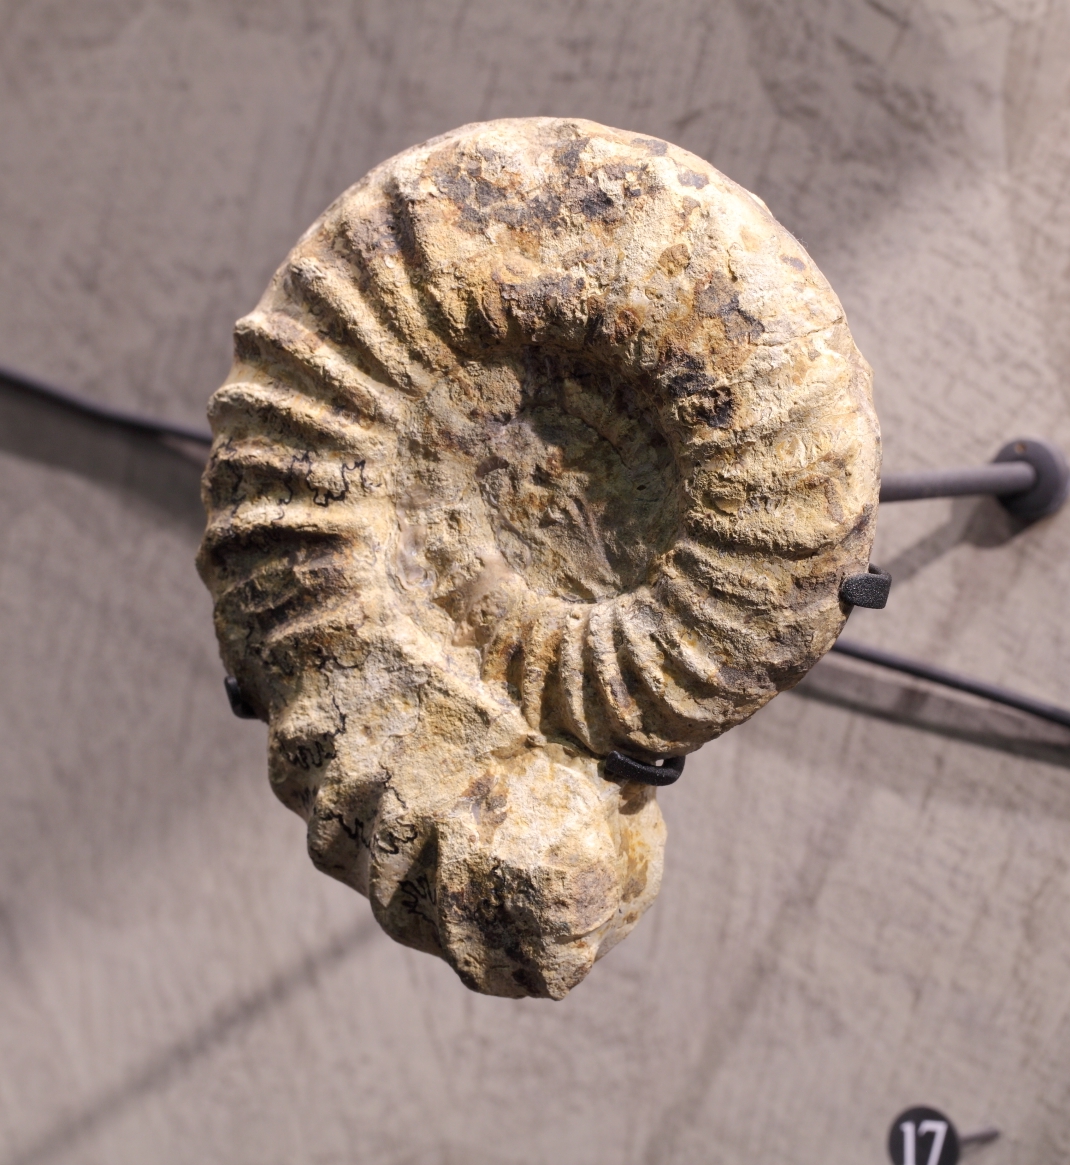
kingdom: Animalia
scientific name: Animalia
